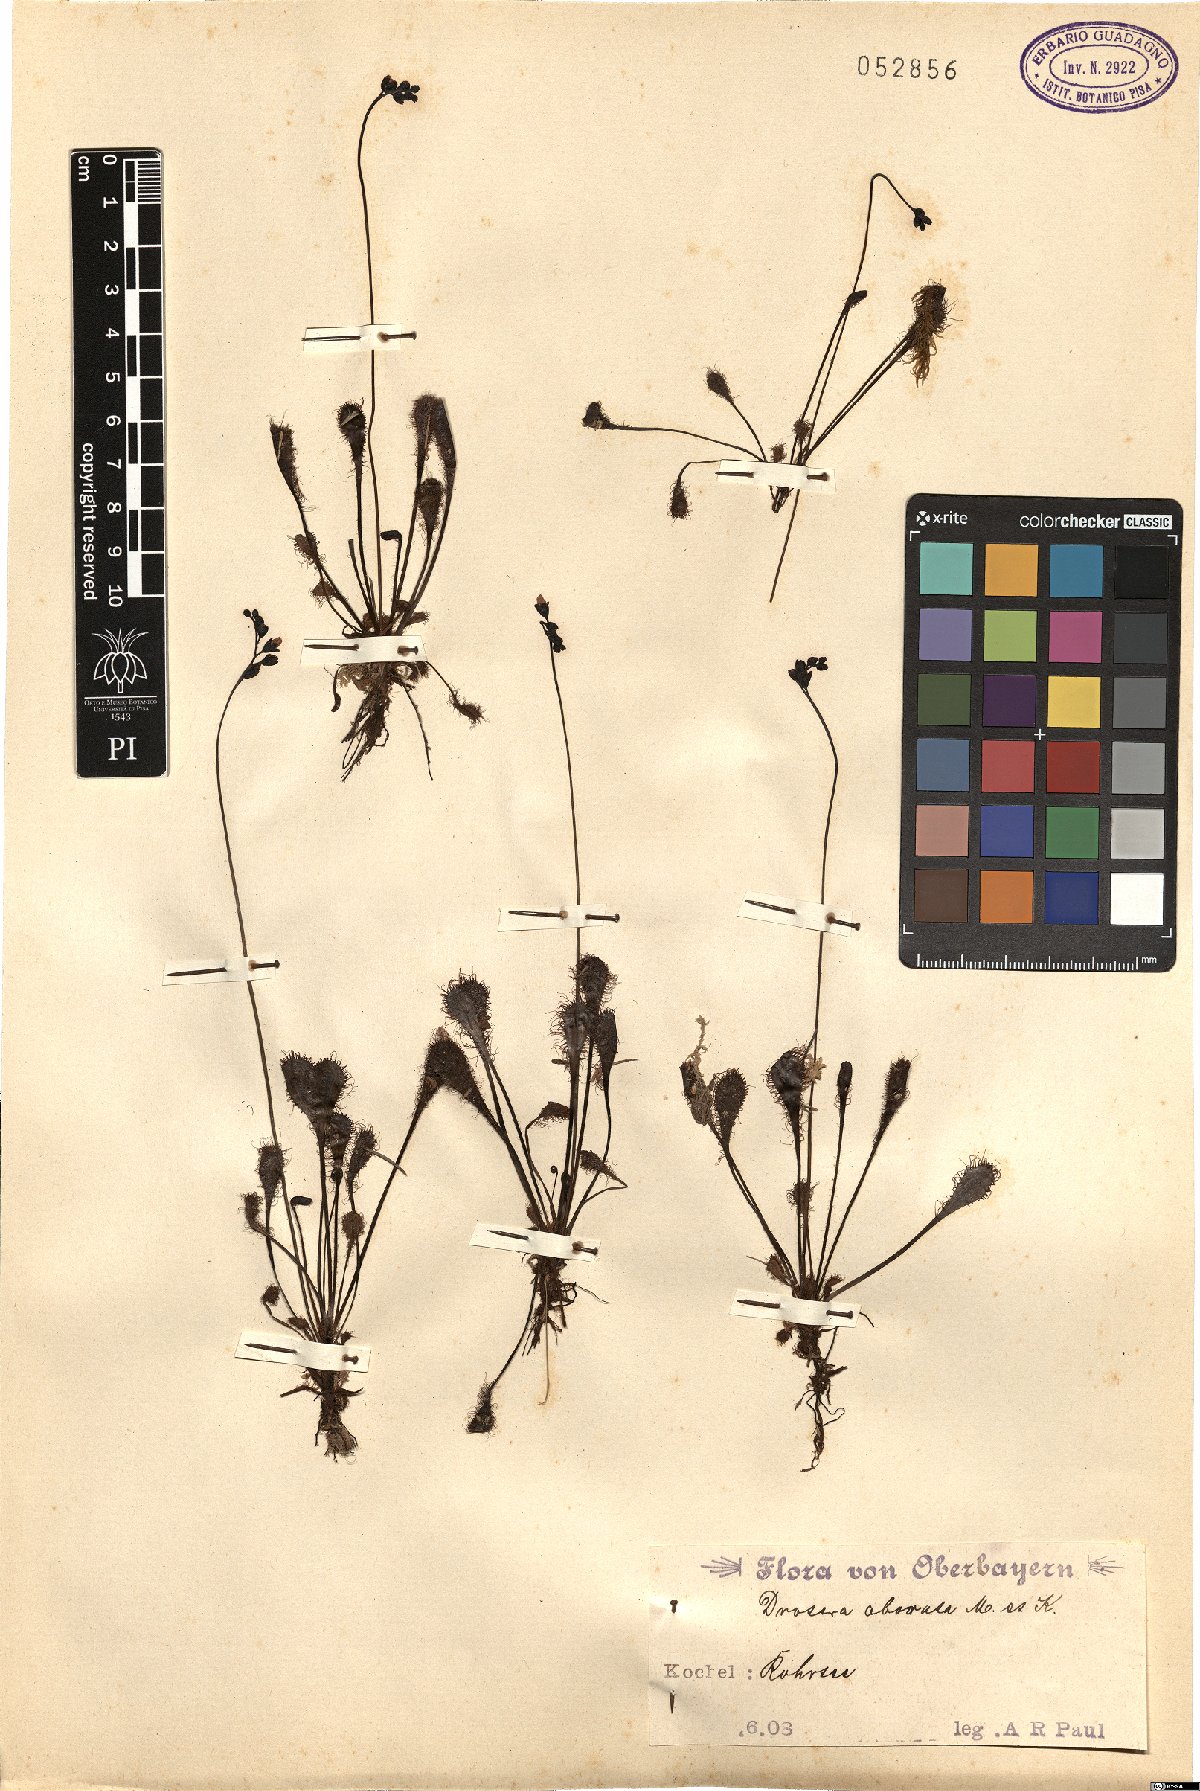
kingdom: Plantae
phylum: Tracheophyta
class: Magnoliopsida
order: Caryophyllales
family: Droseraceae
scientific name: Droseraceae
